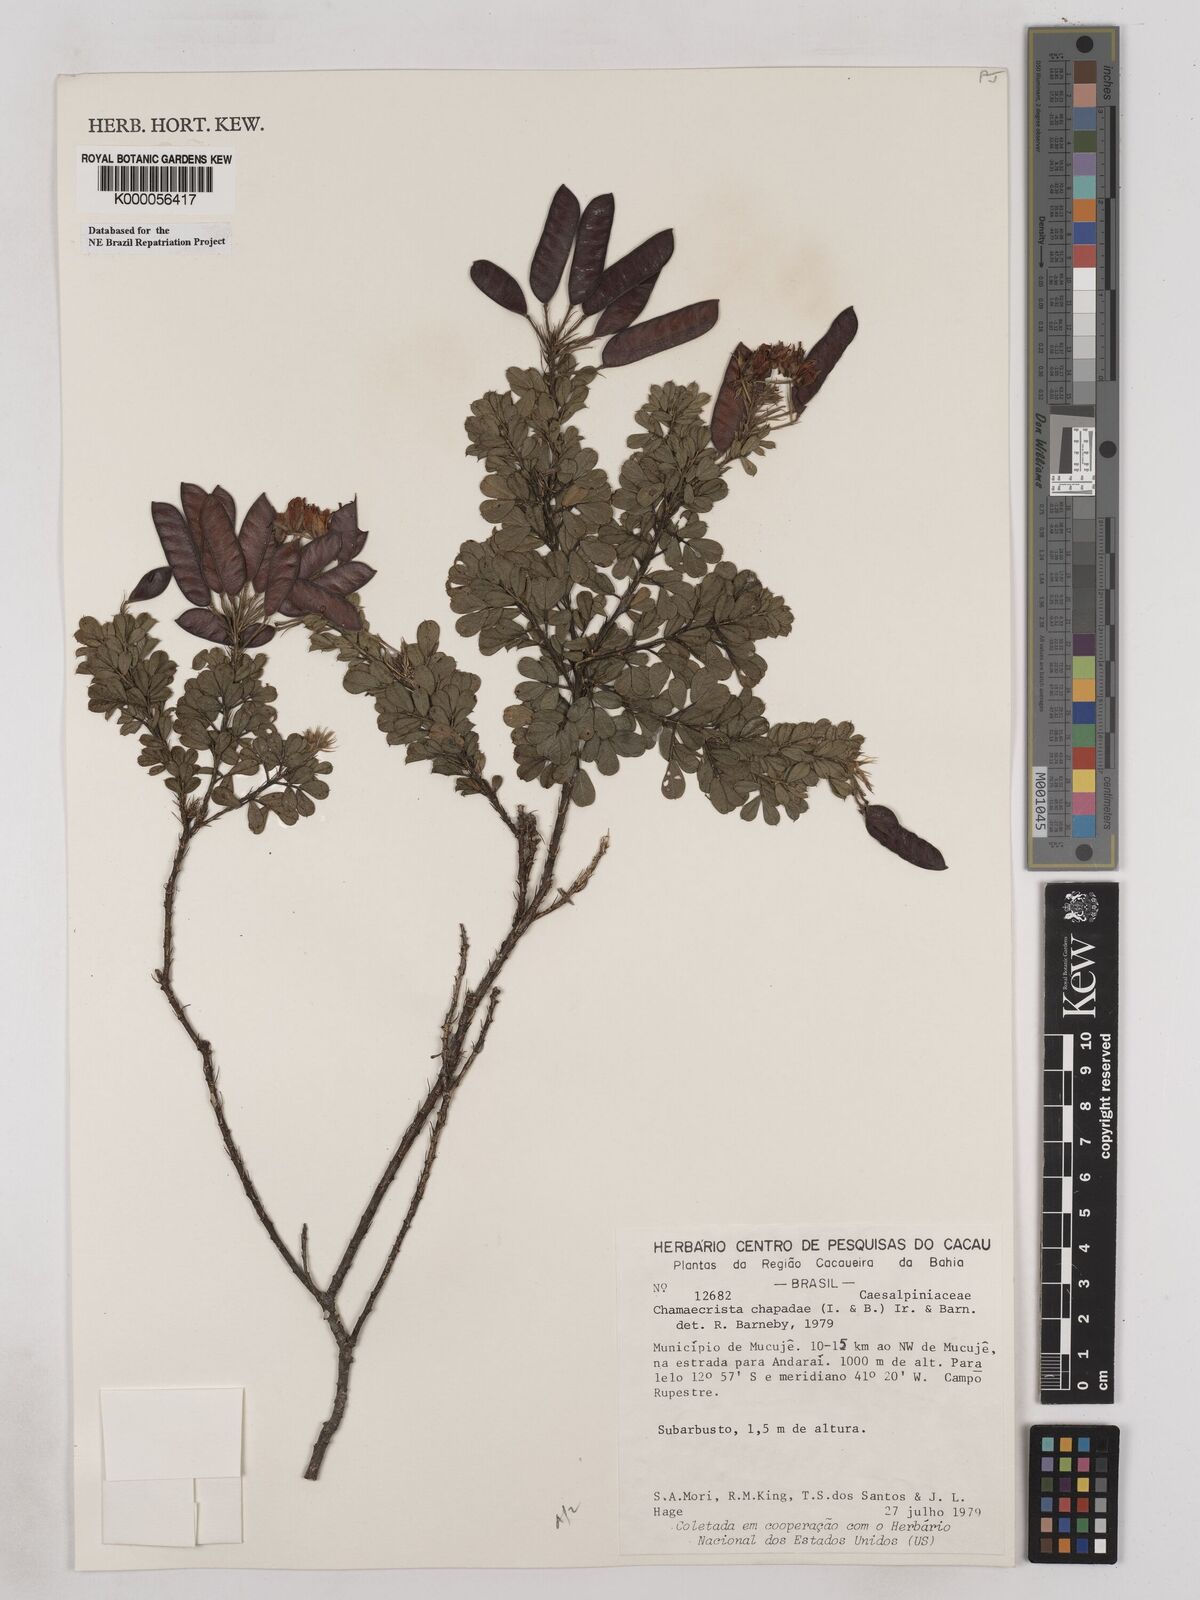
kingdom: Plantae
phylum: Tracheophyta
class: Magnoliopsida
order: Fabales
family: Fabaceae
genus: Chamaecrista
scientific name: Chamaecrista chapadae
